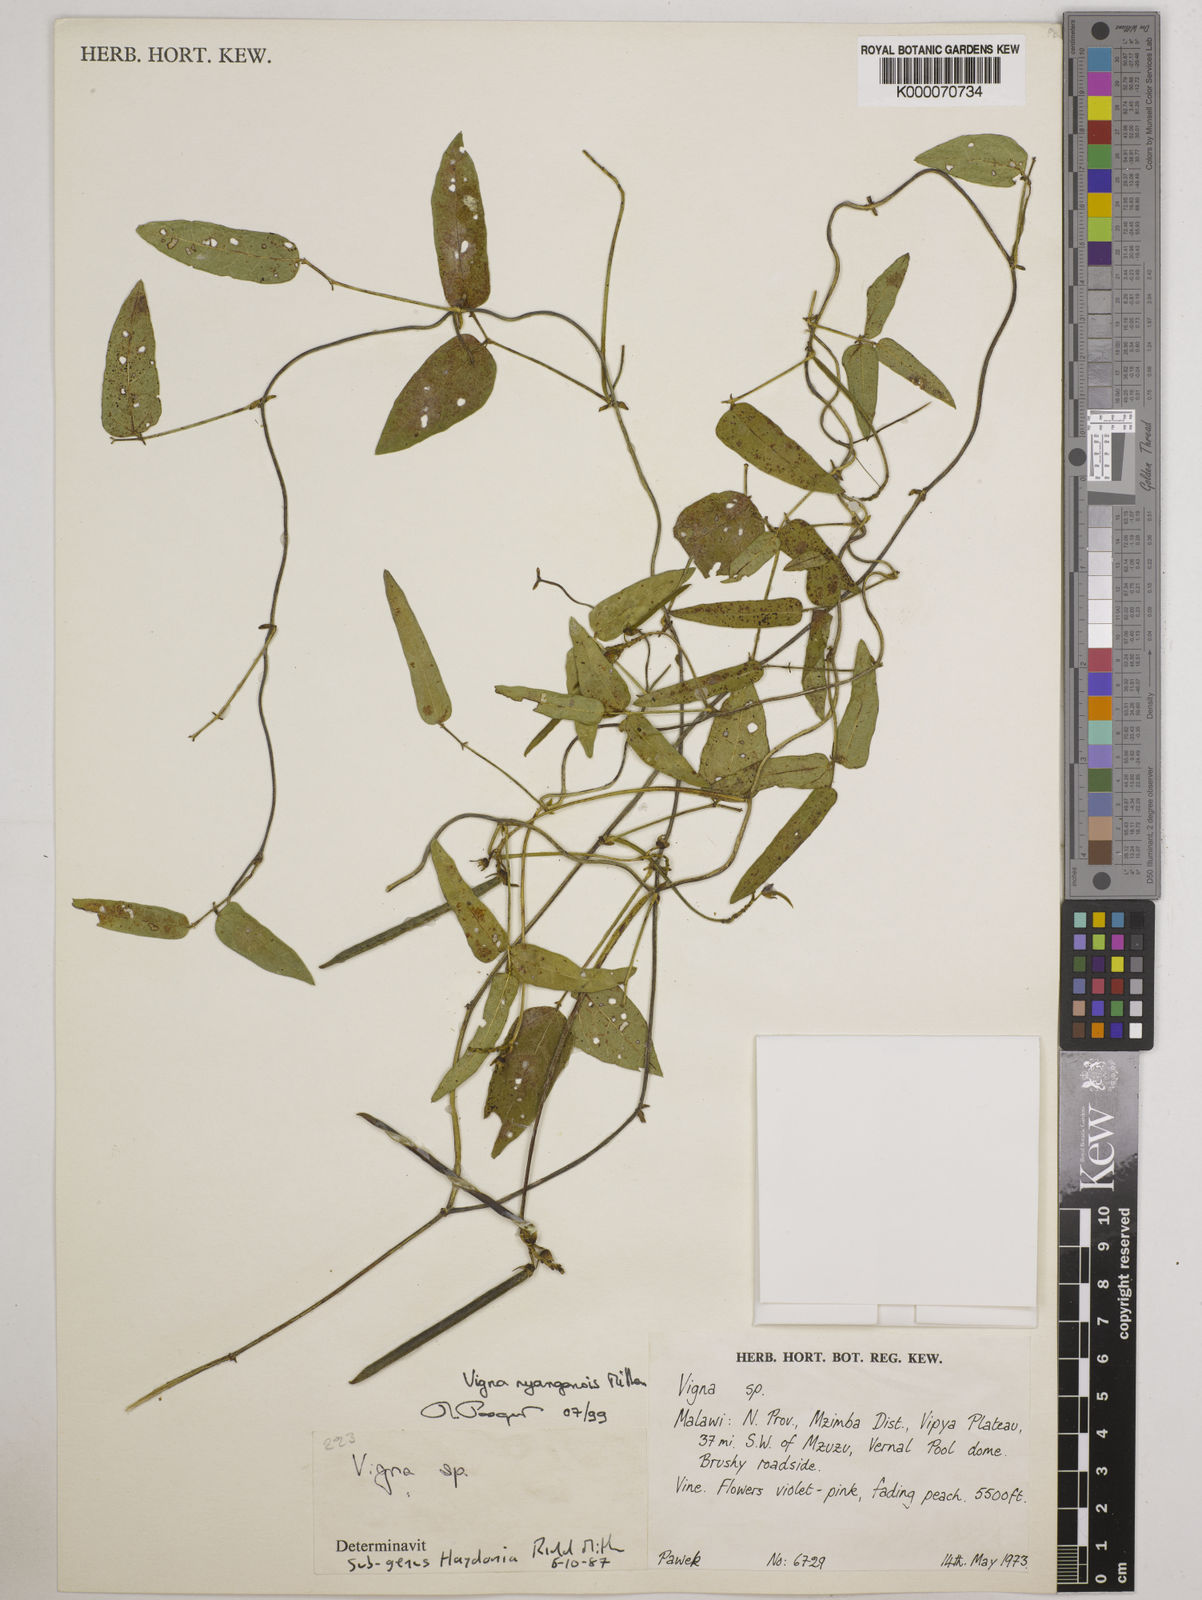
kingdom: Plantae
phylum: Tracheophyta
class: Magnoliopsida
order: Fabales
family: Fabaceae
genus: Vigna
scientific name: Vigna nyangensis
